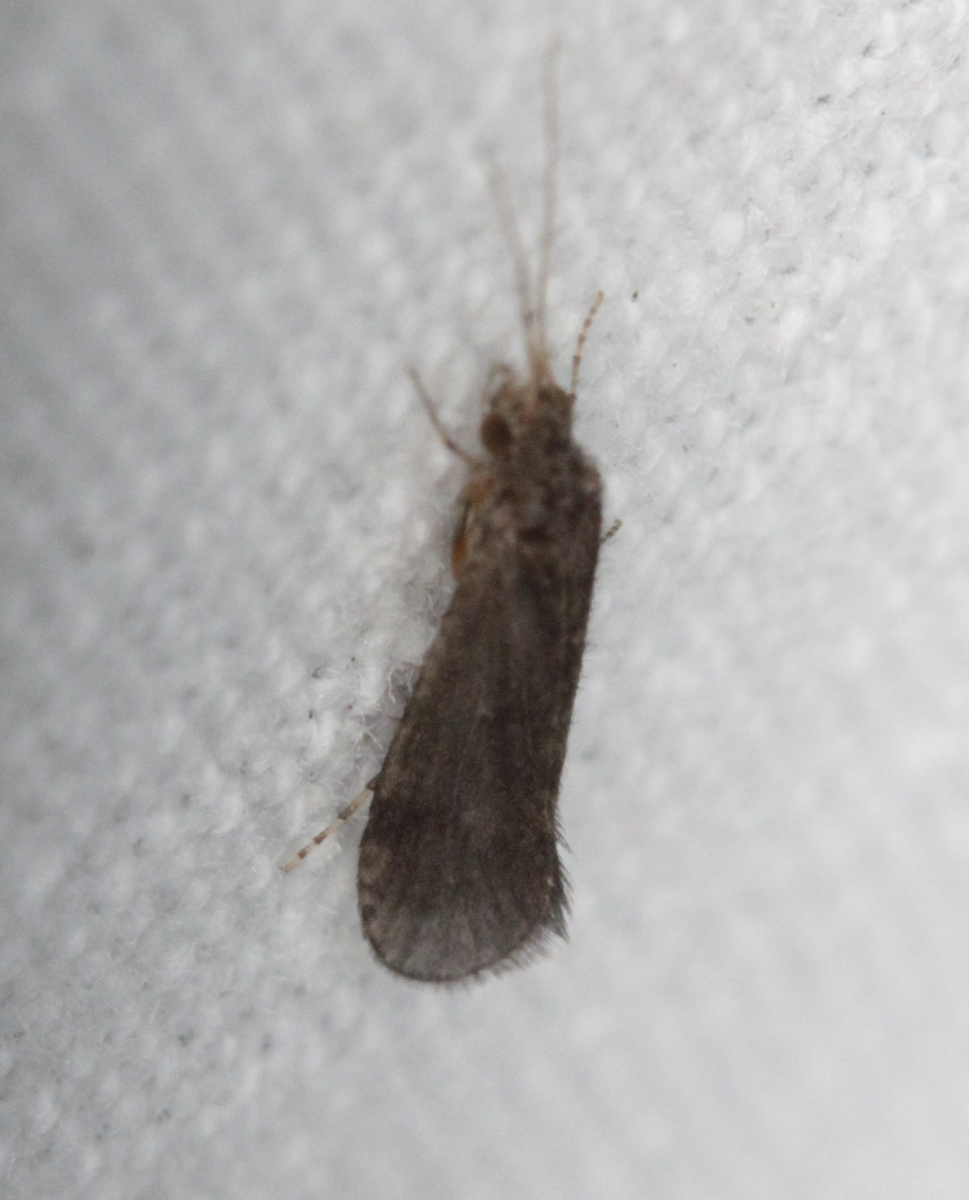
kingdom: Animalia
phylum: Arthropoda
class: Insecta
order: Trichoptera
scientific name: Trichoptera
